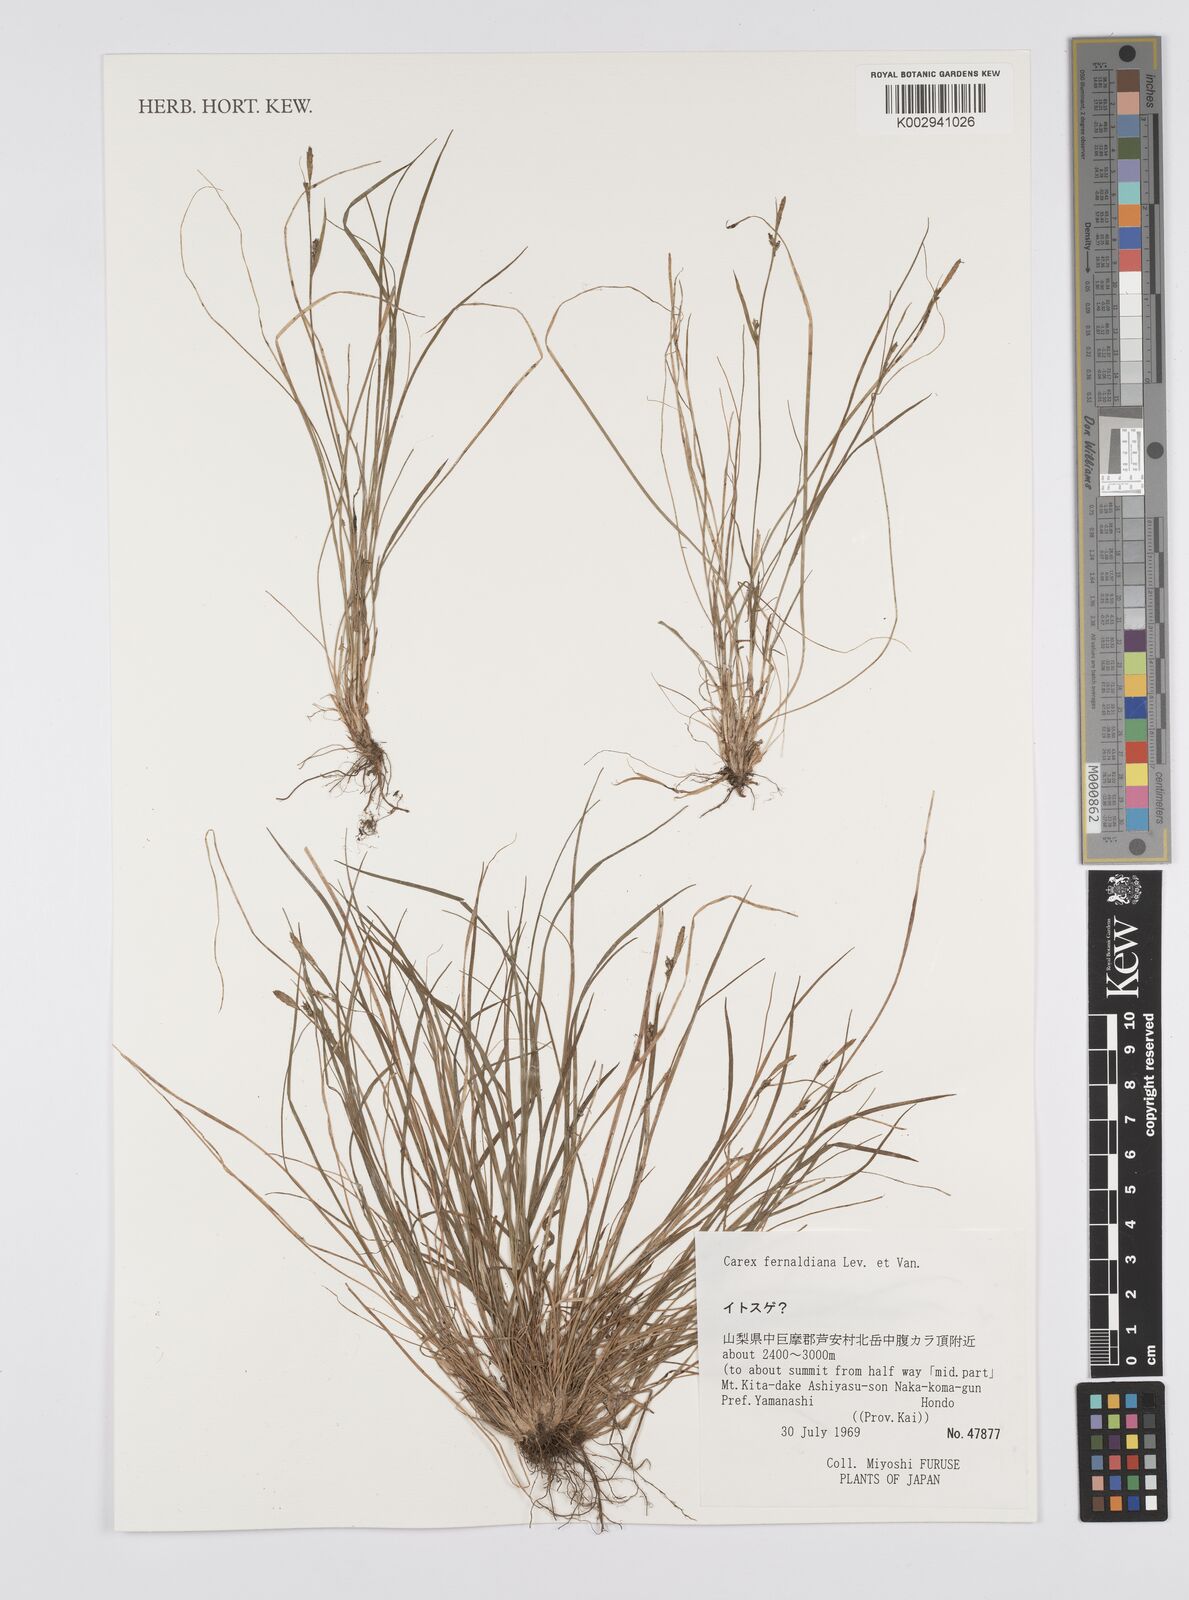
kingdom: Plantae
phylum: Tracheophyta
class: Liliopsida
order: Poales
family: Cyperaceae
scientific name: Cyperaceae
